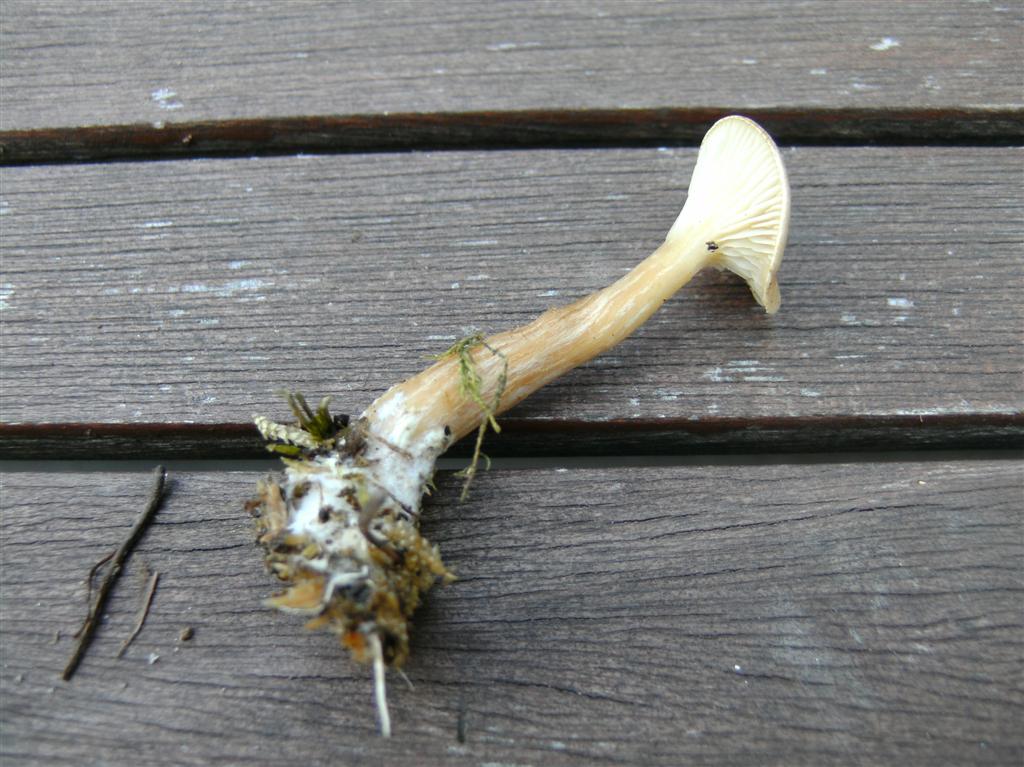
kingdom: Fungi
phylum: Basidiomycota
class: Agaricomycetes
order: Agaricales
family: Tricholomataceae
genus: Clitocybe
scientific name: Clitocybe costata
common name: brunstokket tragthat
